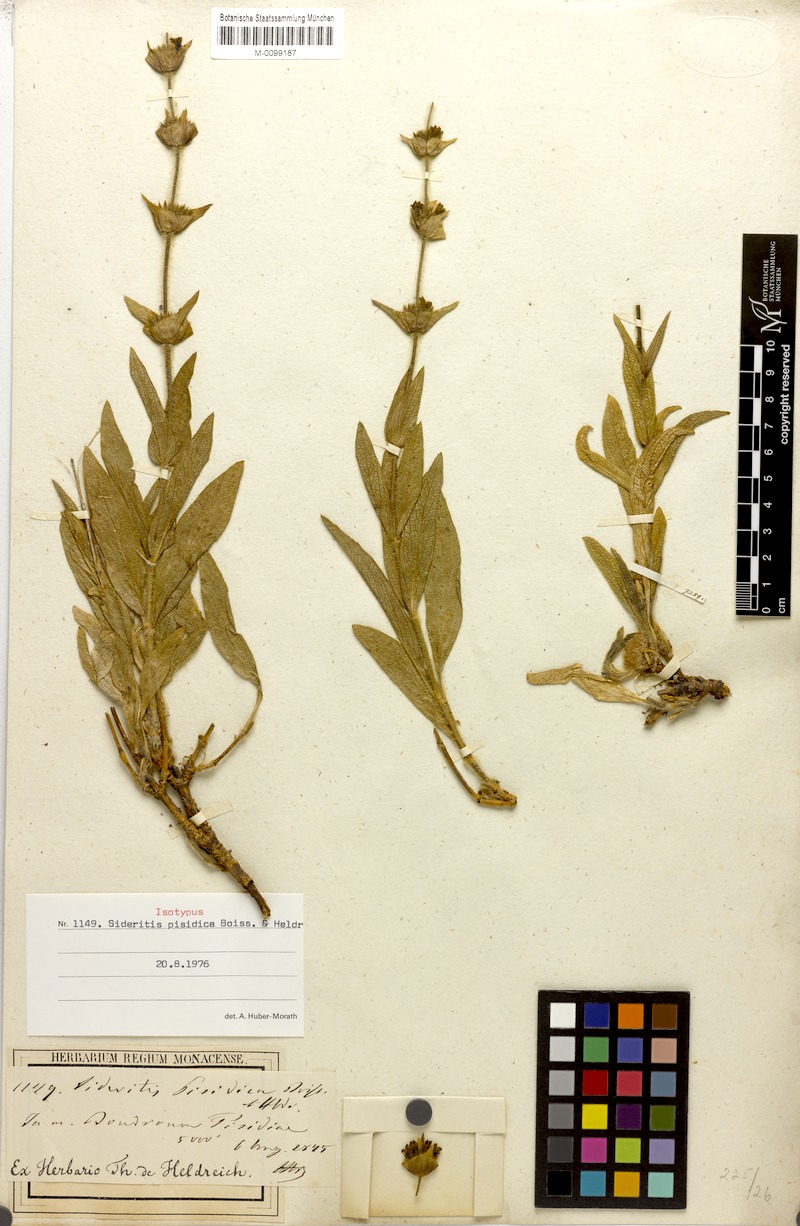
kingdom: Plantae
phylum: Tracheophyta
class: Magnoliopsida
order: Lamiales
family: Lamiaceae
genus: Sideritis
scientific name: Sideritis pisidica
